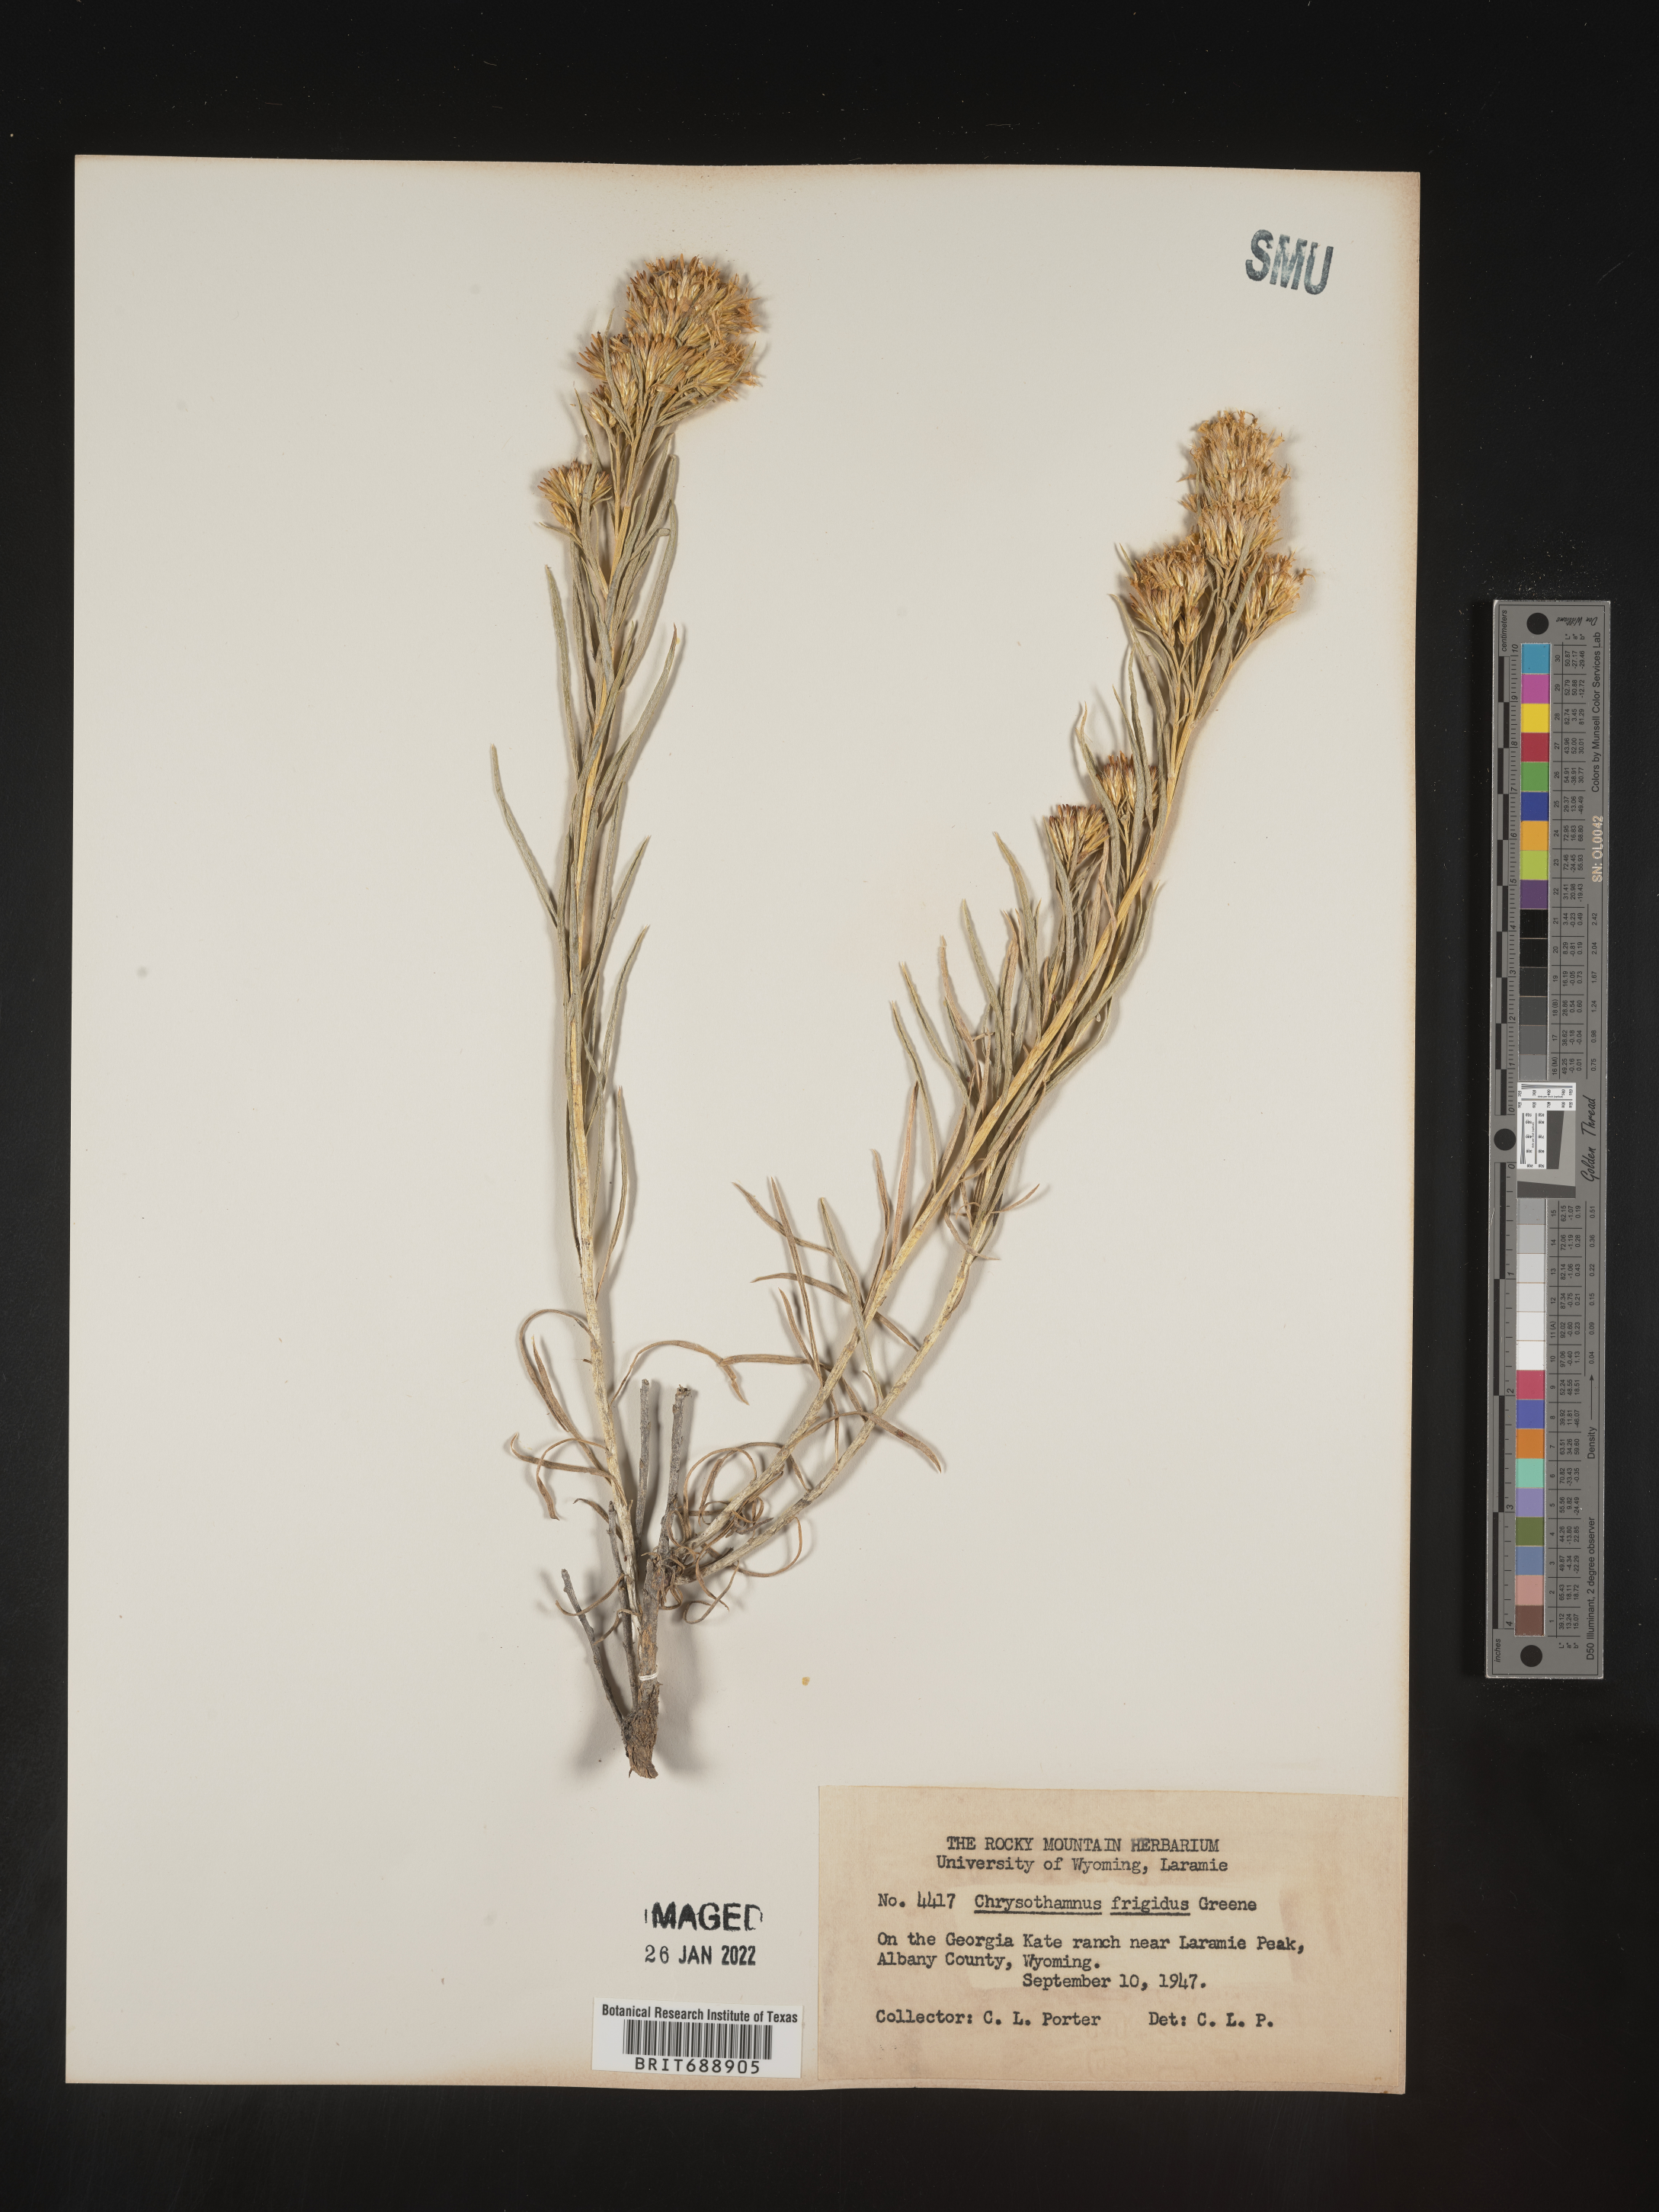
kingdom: Plantae
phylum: Tracheophyta
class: Magnoliopsida
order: Asterales
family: Asteraceae
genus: Chrysothamnus
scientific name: Chrysothamnus
